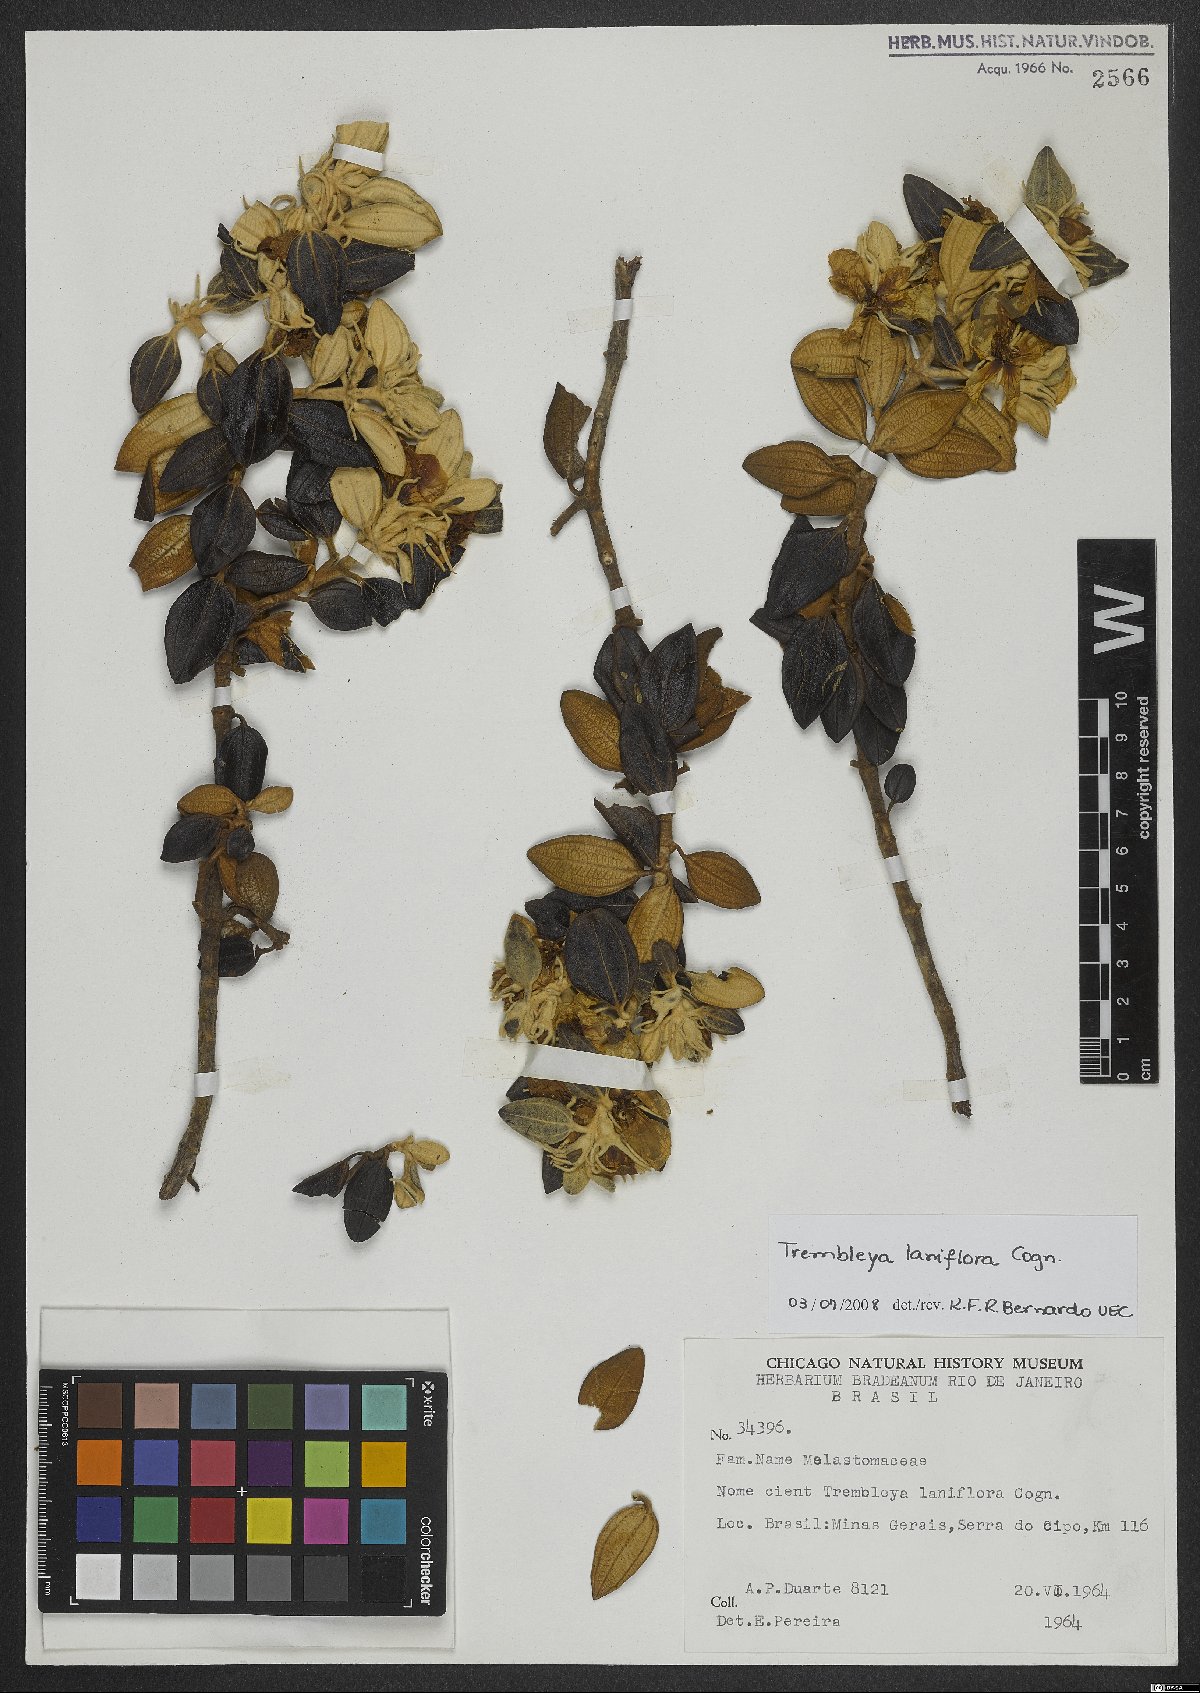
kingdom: Plantae
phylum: Tracheophyta
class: Magnoliopsida
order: Myrtales
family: Melastomataceae
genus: Microlicia
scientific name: Microlicia laniflora
